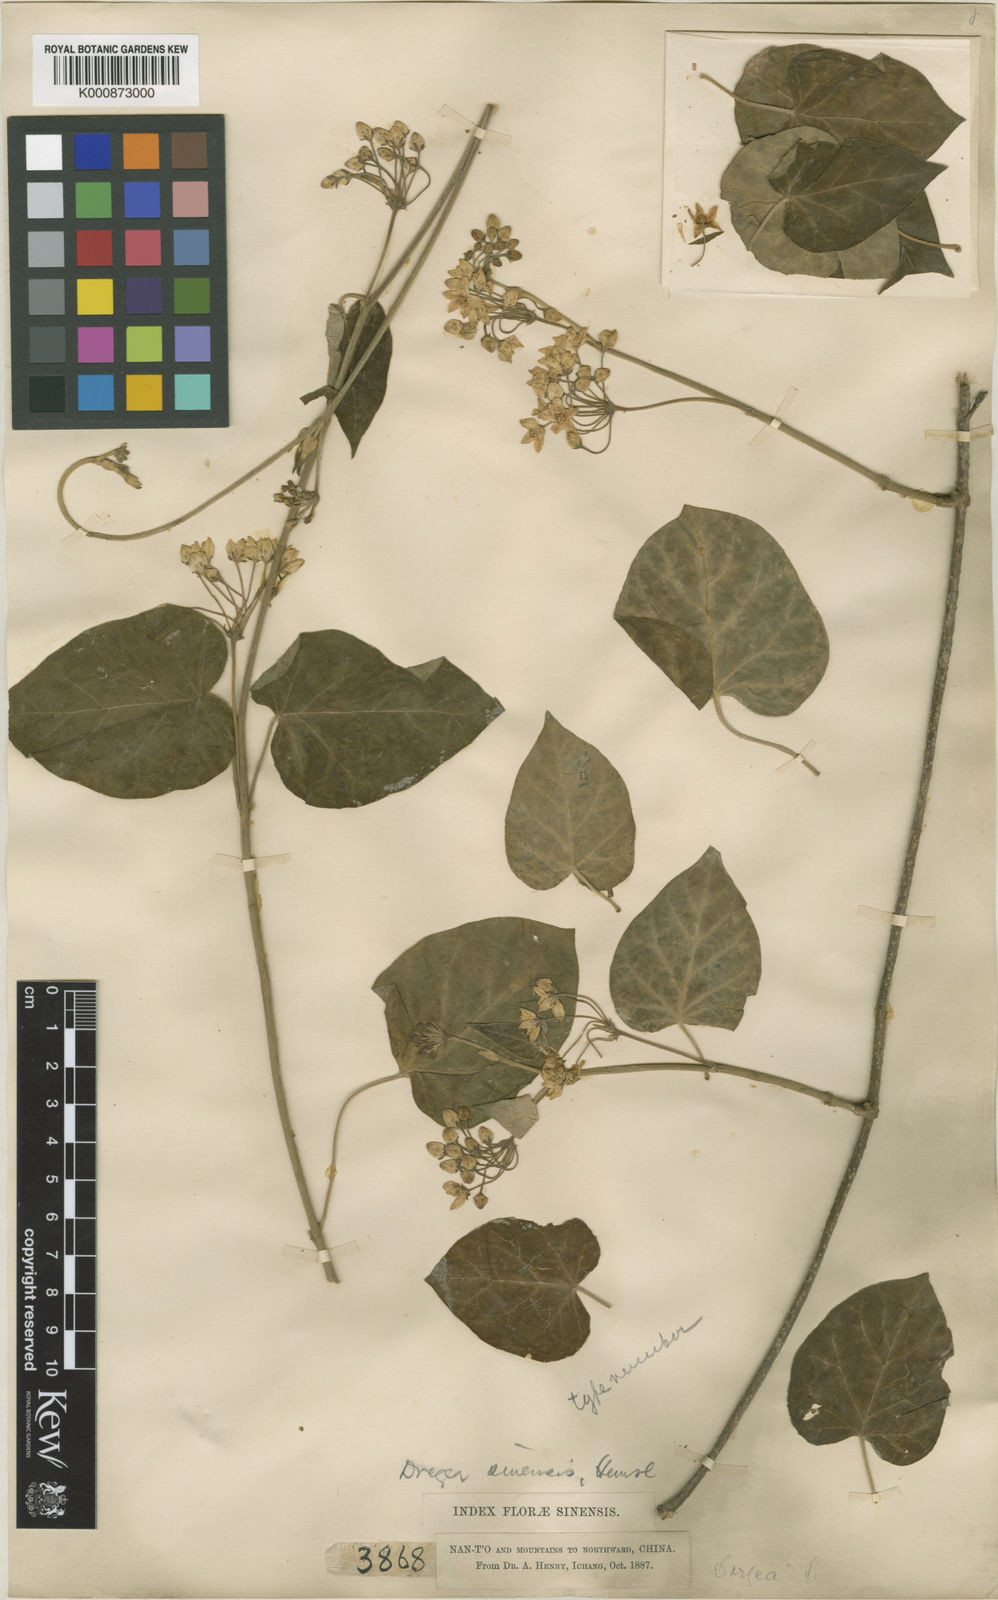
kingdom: Plantae
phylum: Tracheophyta
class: Magnoliopsida
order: Gentianales
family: Apocynaceae
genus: Stephanotis
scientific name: Stephanotis sinensis
